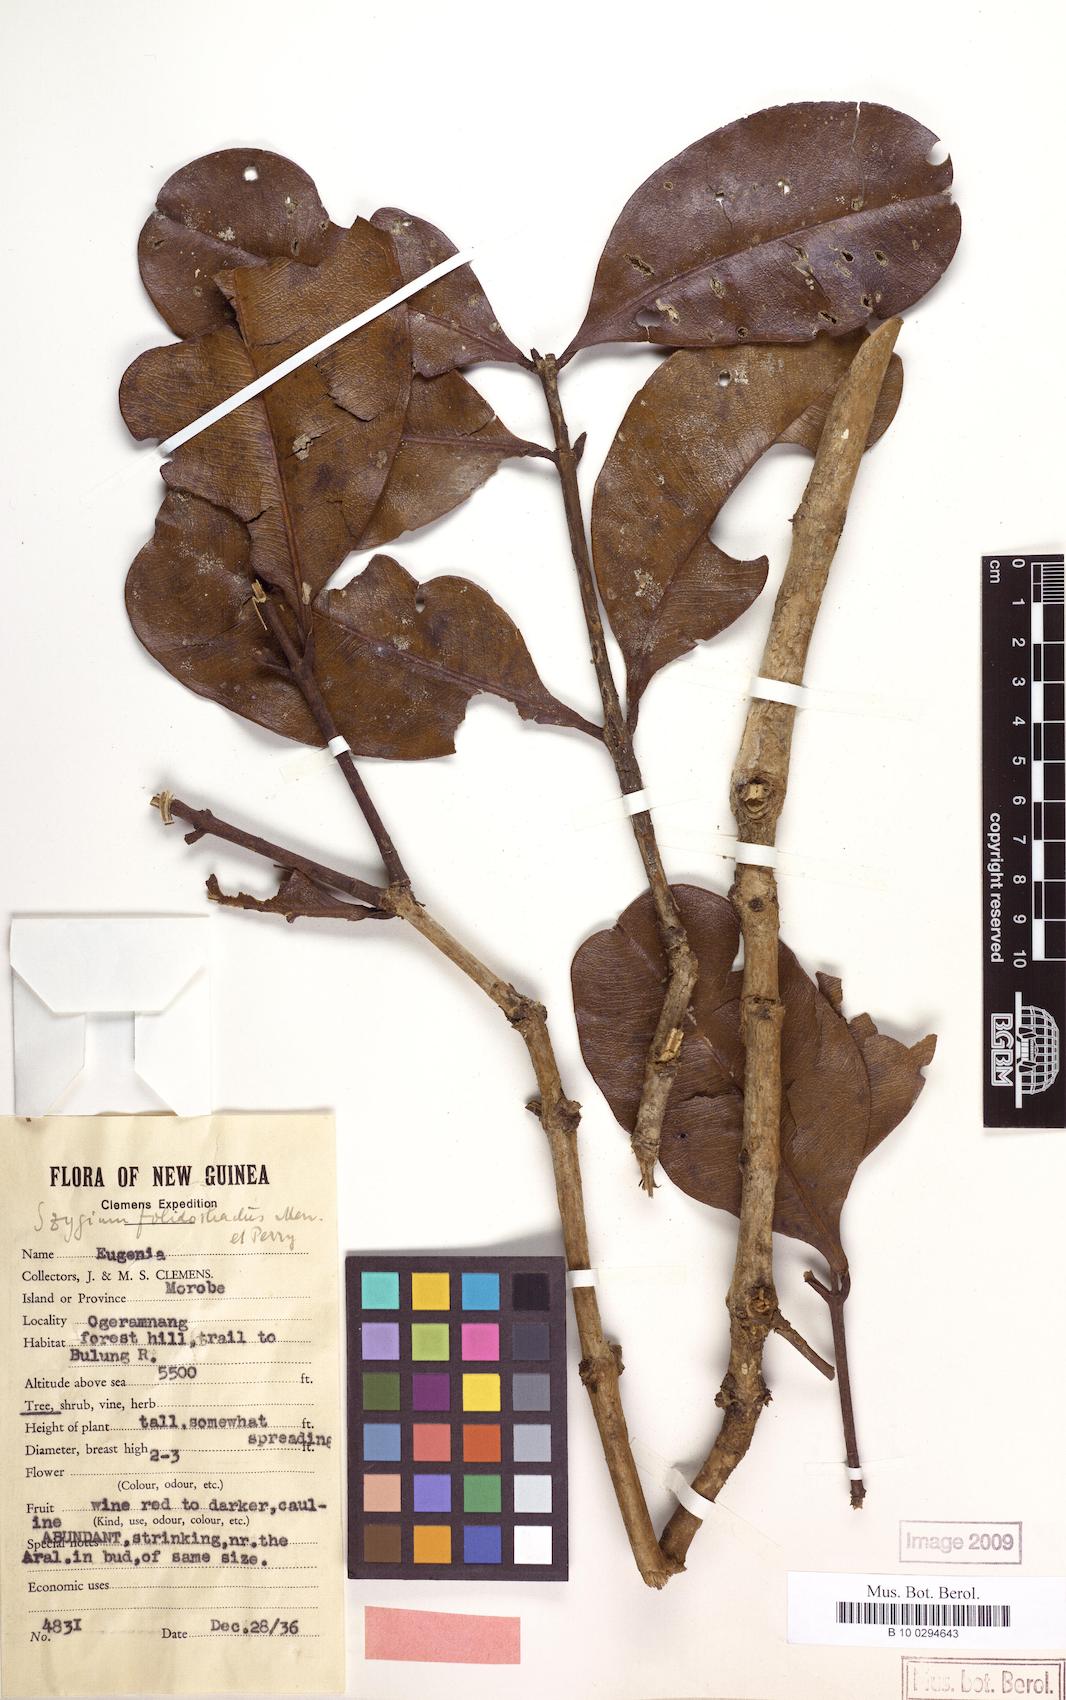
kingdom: Plantae
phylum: Tracheophyta
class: Magnoliopsida
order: Myrtales
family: Myrtaceae
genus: Syzygium
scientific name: Syzygium furfuraceum
